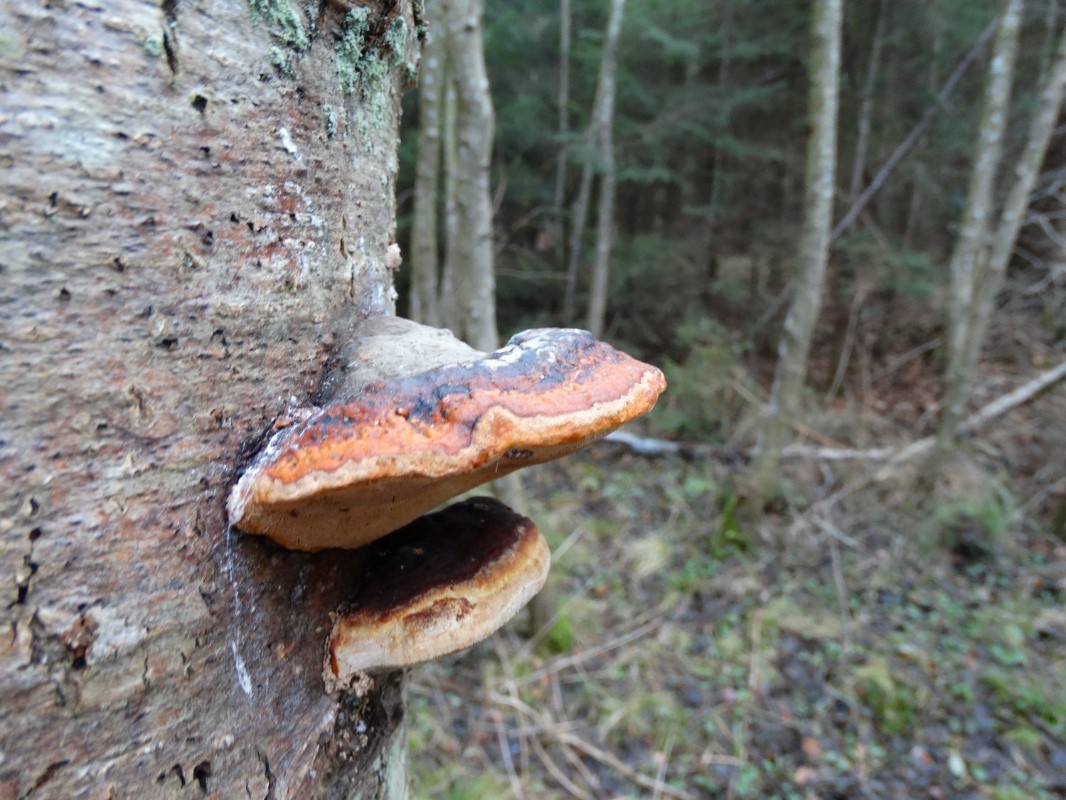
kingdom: Fungi
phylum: Basidiomycota
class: Agaricomycetes
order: Polyporales
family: Fomitopsidaceae
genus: Fomitopsis
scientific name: Fomitopsis pinicola
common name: randbæltet hovporesvamp
